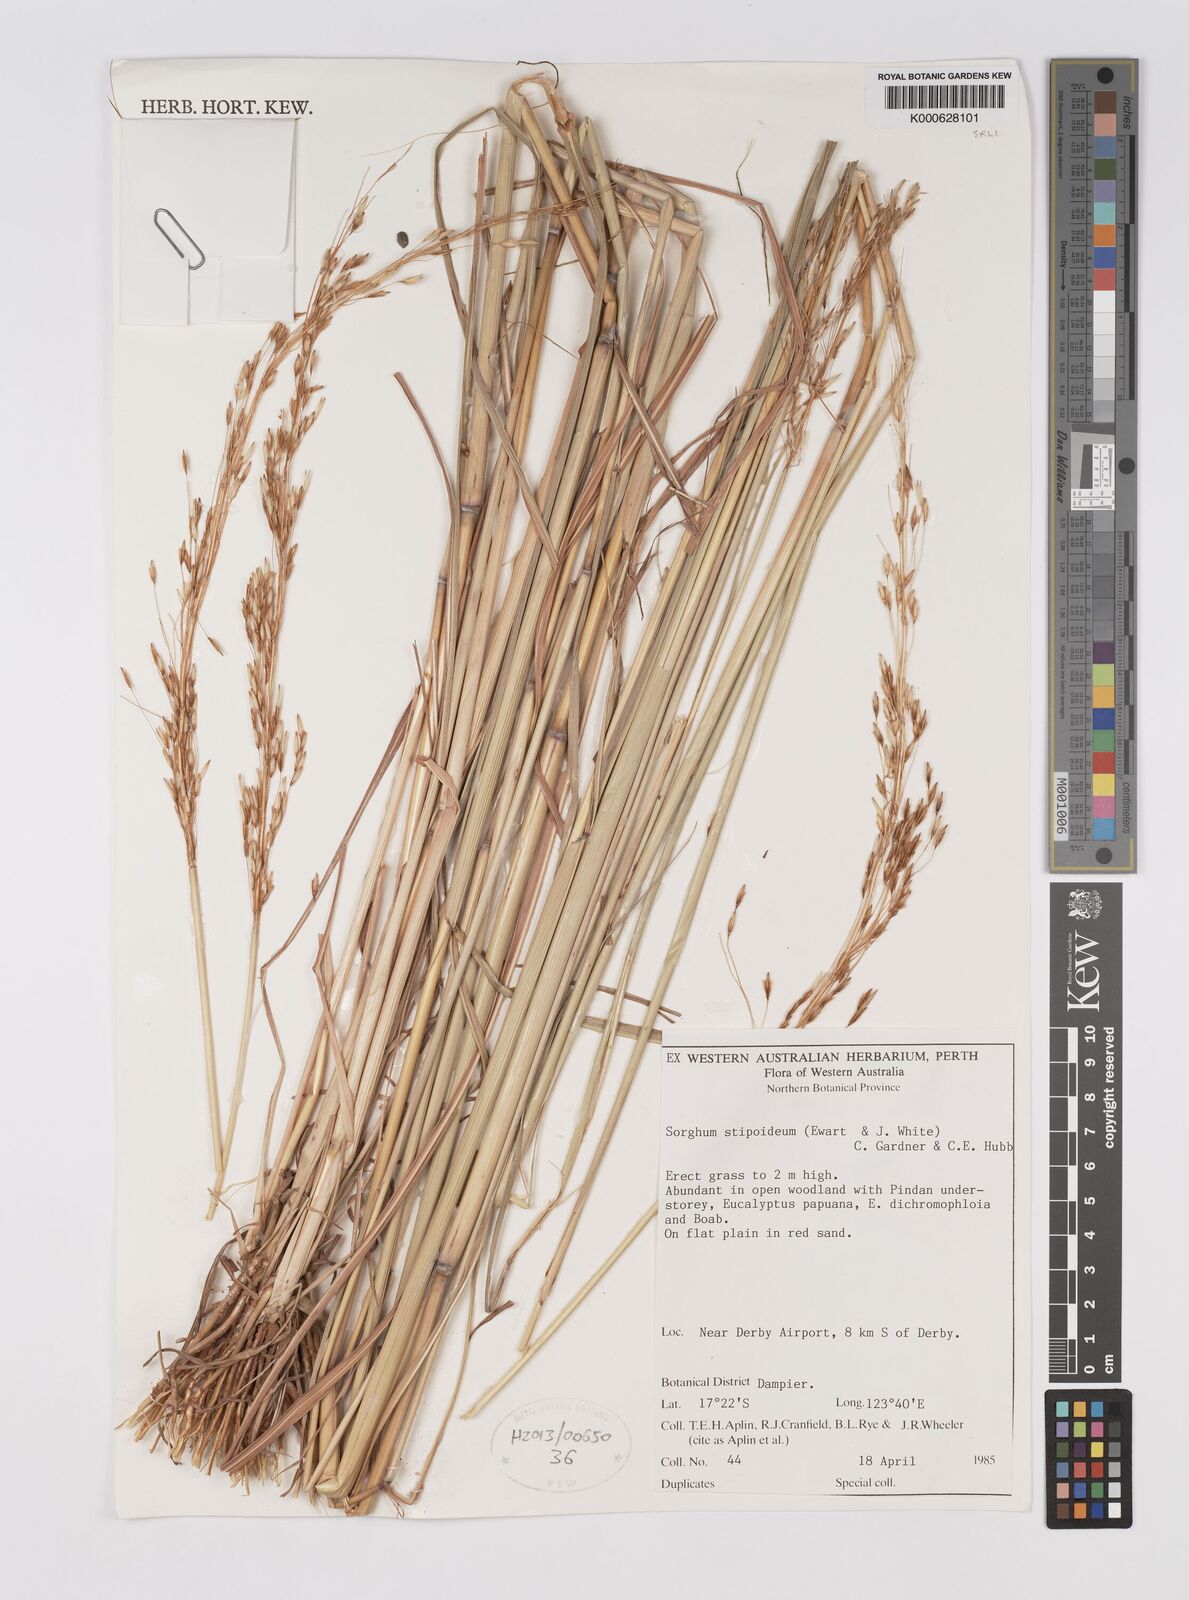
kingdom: Plantae
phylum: Tracheophyta
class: Liliopsida
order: Poales
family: Poaceae
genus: Sarga
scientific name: Sarga stipoidea
